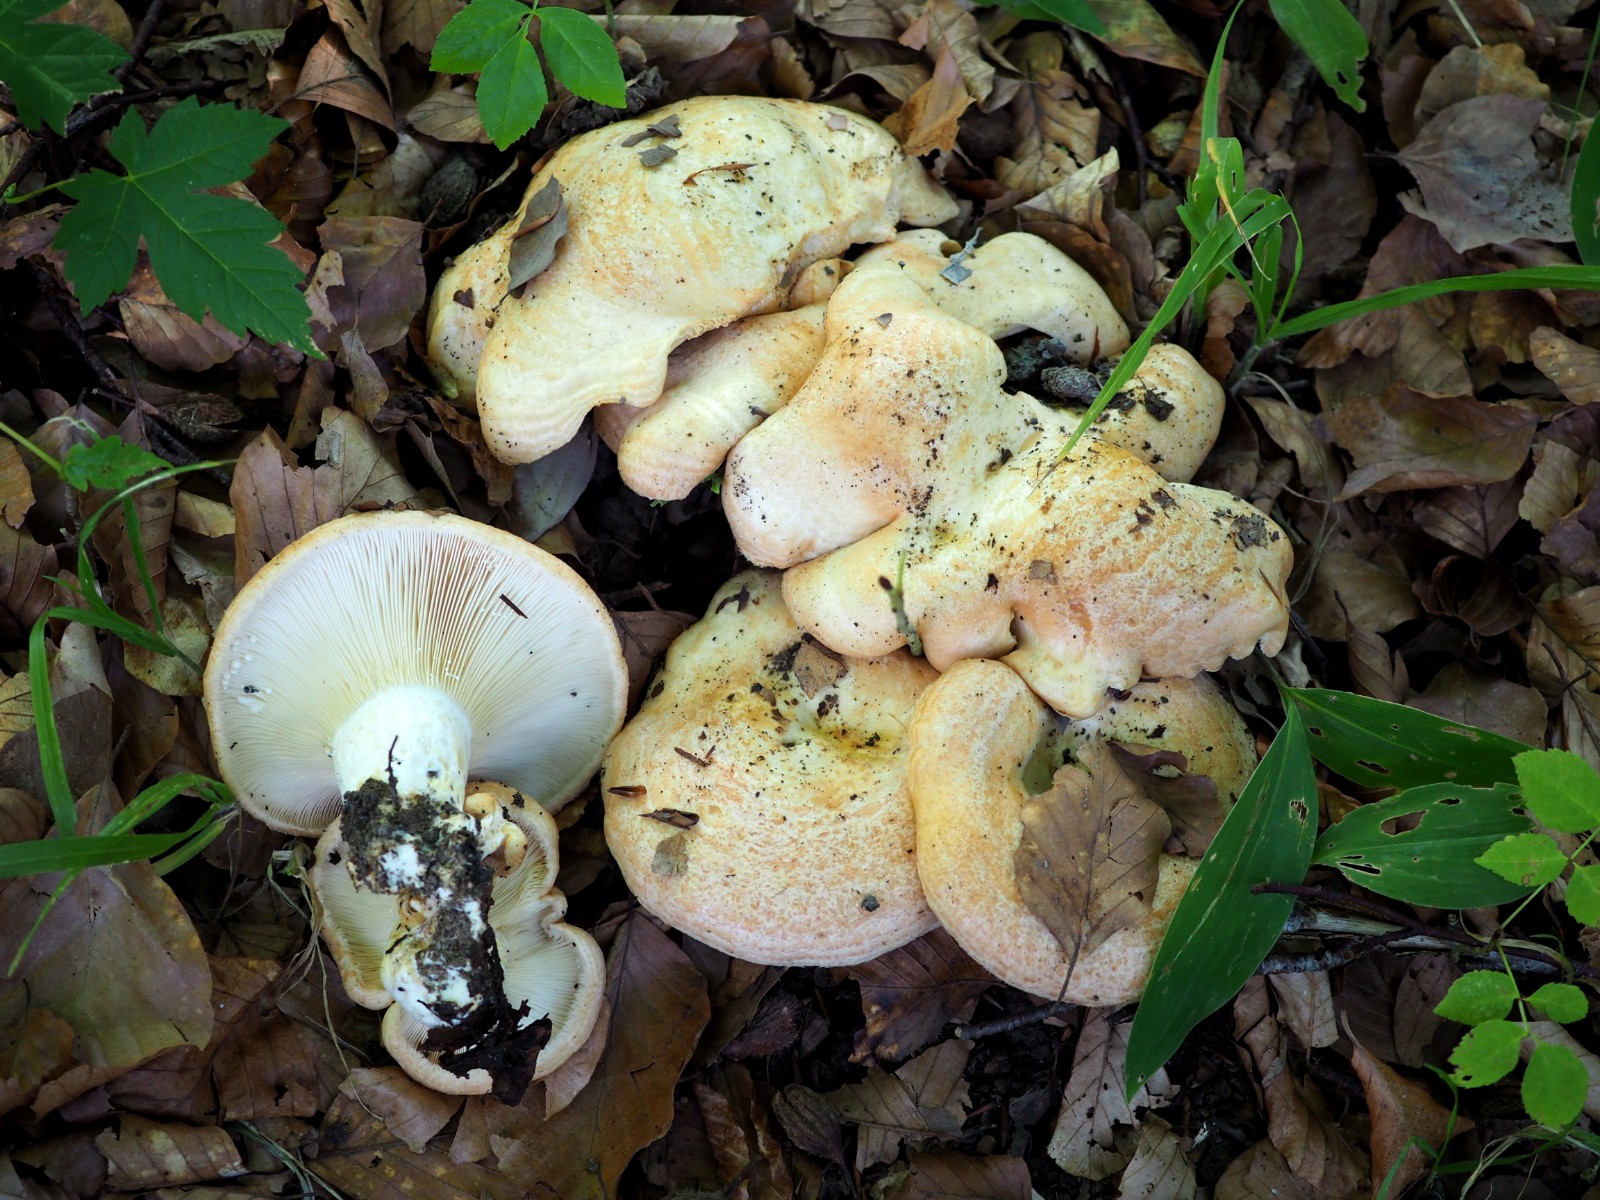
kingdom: Fungi
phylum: Basidiomycota
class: Agaricomycetes
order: Russulales
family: Russulaceae
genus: Lactarius
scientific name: Lactarius zonarius
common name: zoneret mælkehat
